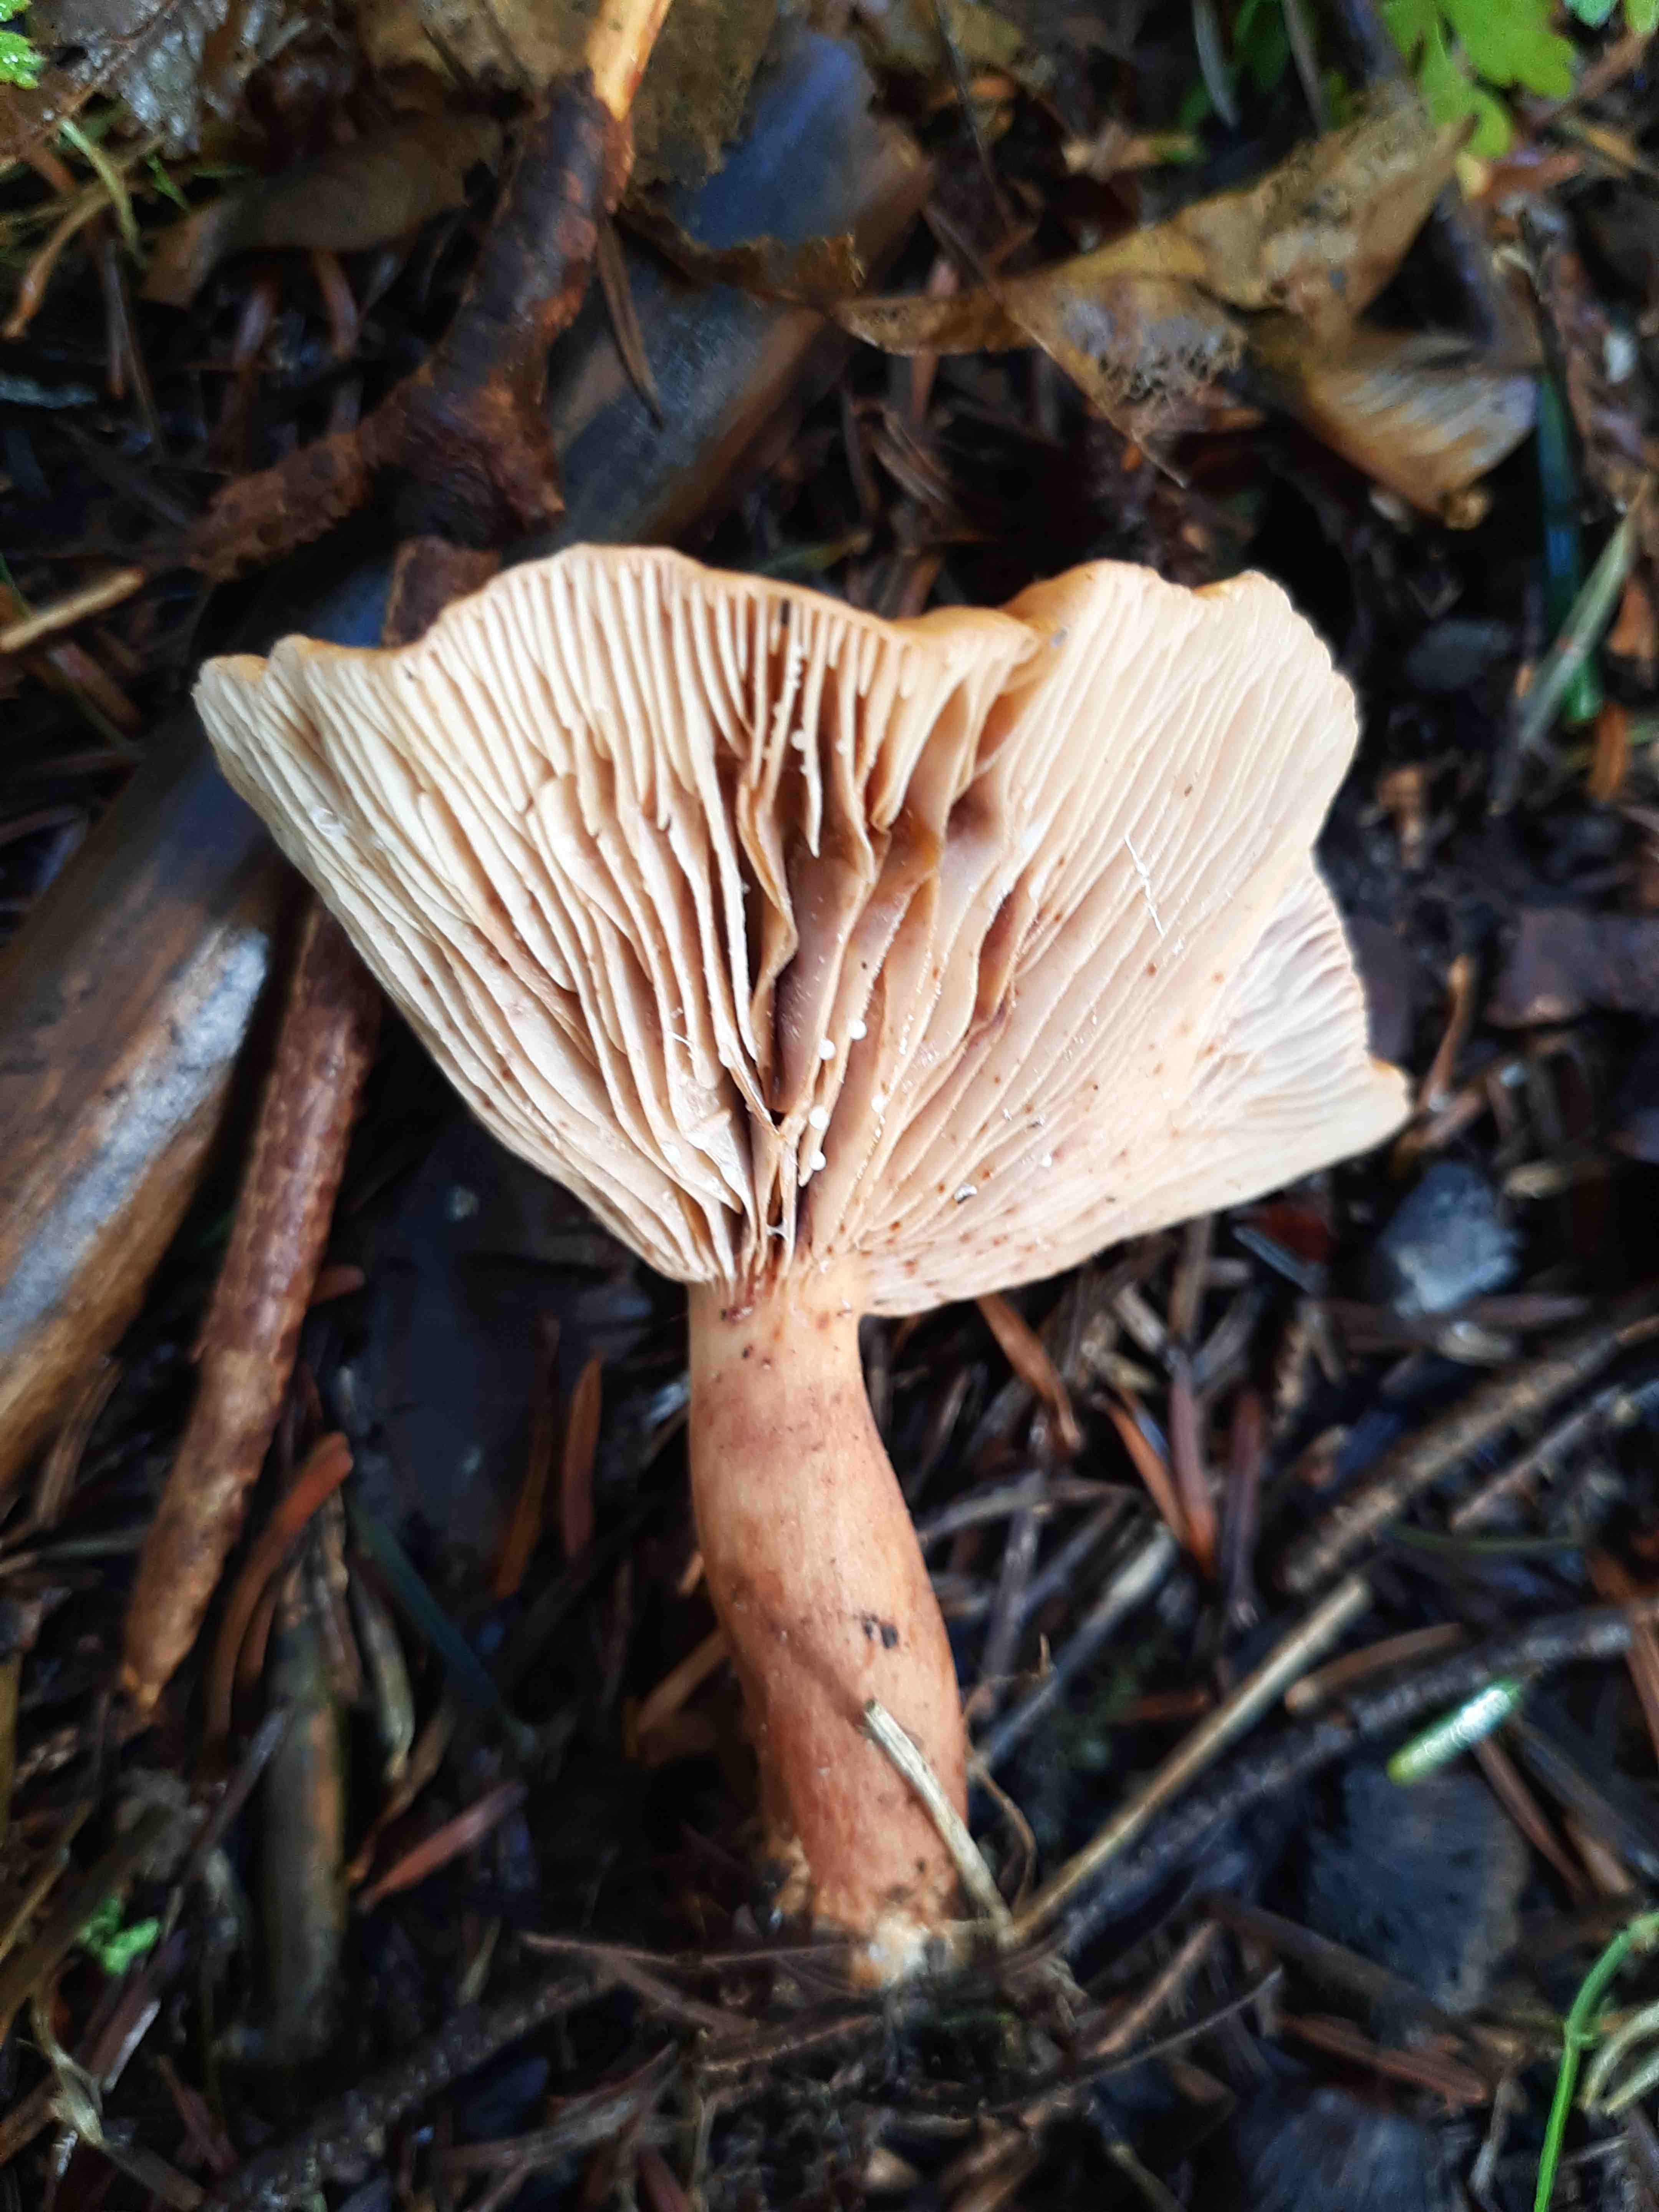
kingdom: Fungi
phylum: Basidiomycota
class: Agaricomycetes
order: Russulales
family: Russulaceae
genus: Lactarius
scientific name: Lactarius tabidus
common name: rynket mælkehat
